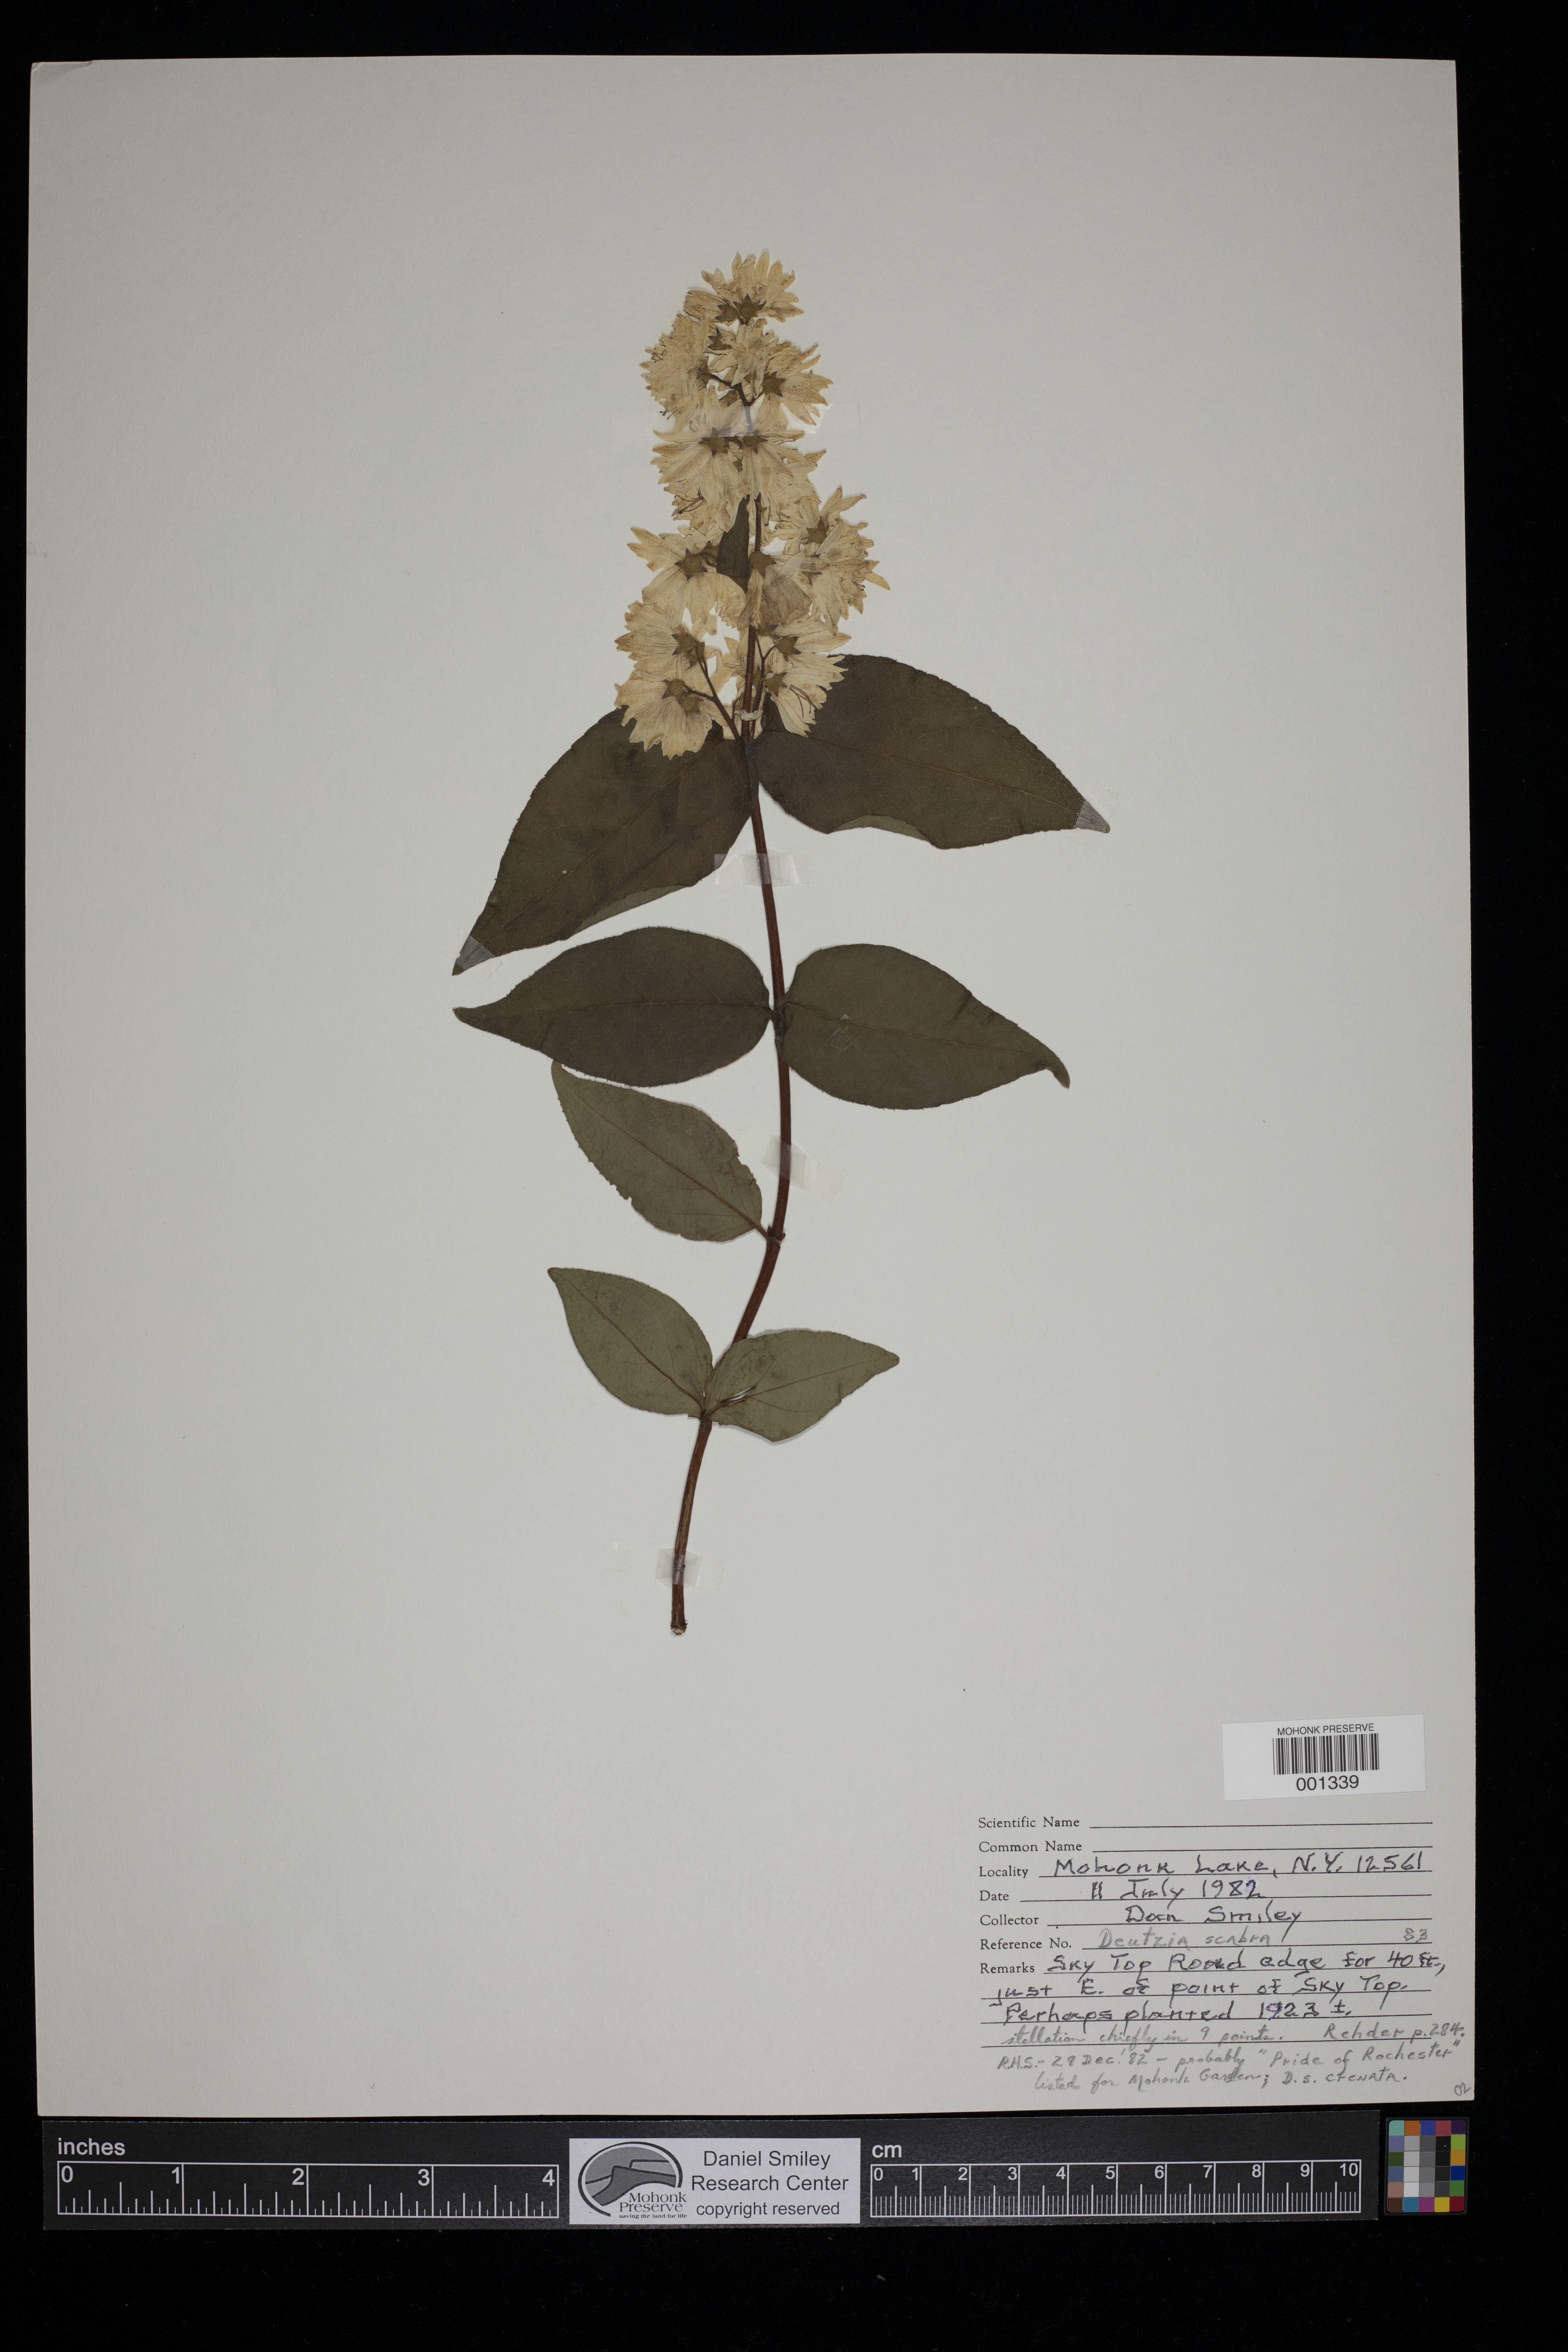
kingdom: Plantae
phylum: Tracheophyta
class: Magnoliopsida
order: Cornales
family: Hydrangeaceae
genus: Deutzia
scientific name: Deutzia scabra
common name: Deutzia
